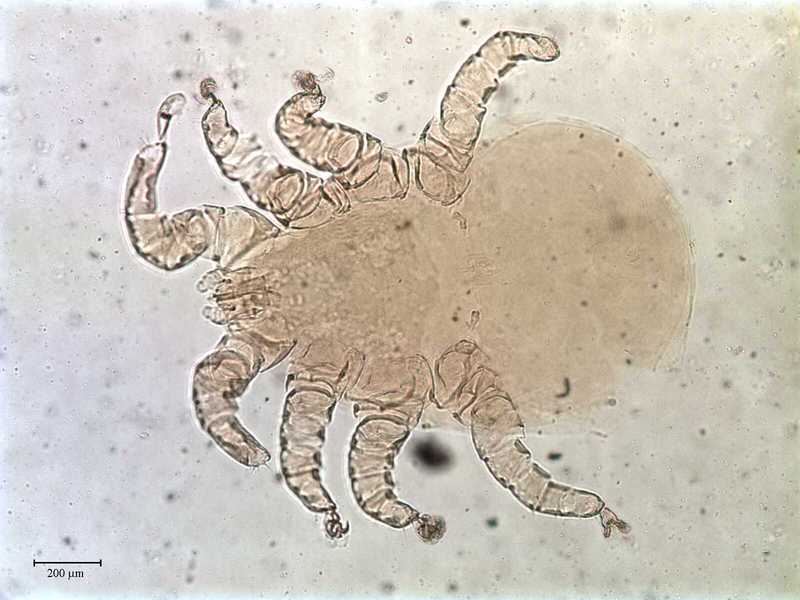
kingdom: Animalia
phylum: Arthropoda
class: Arachnida
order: Mesostigmata
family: Rhinonyssidae
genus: Sternostoma
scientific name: Sternostoma technaui
